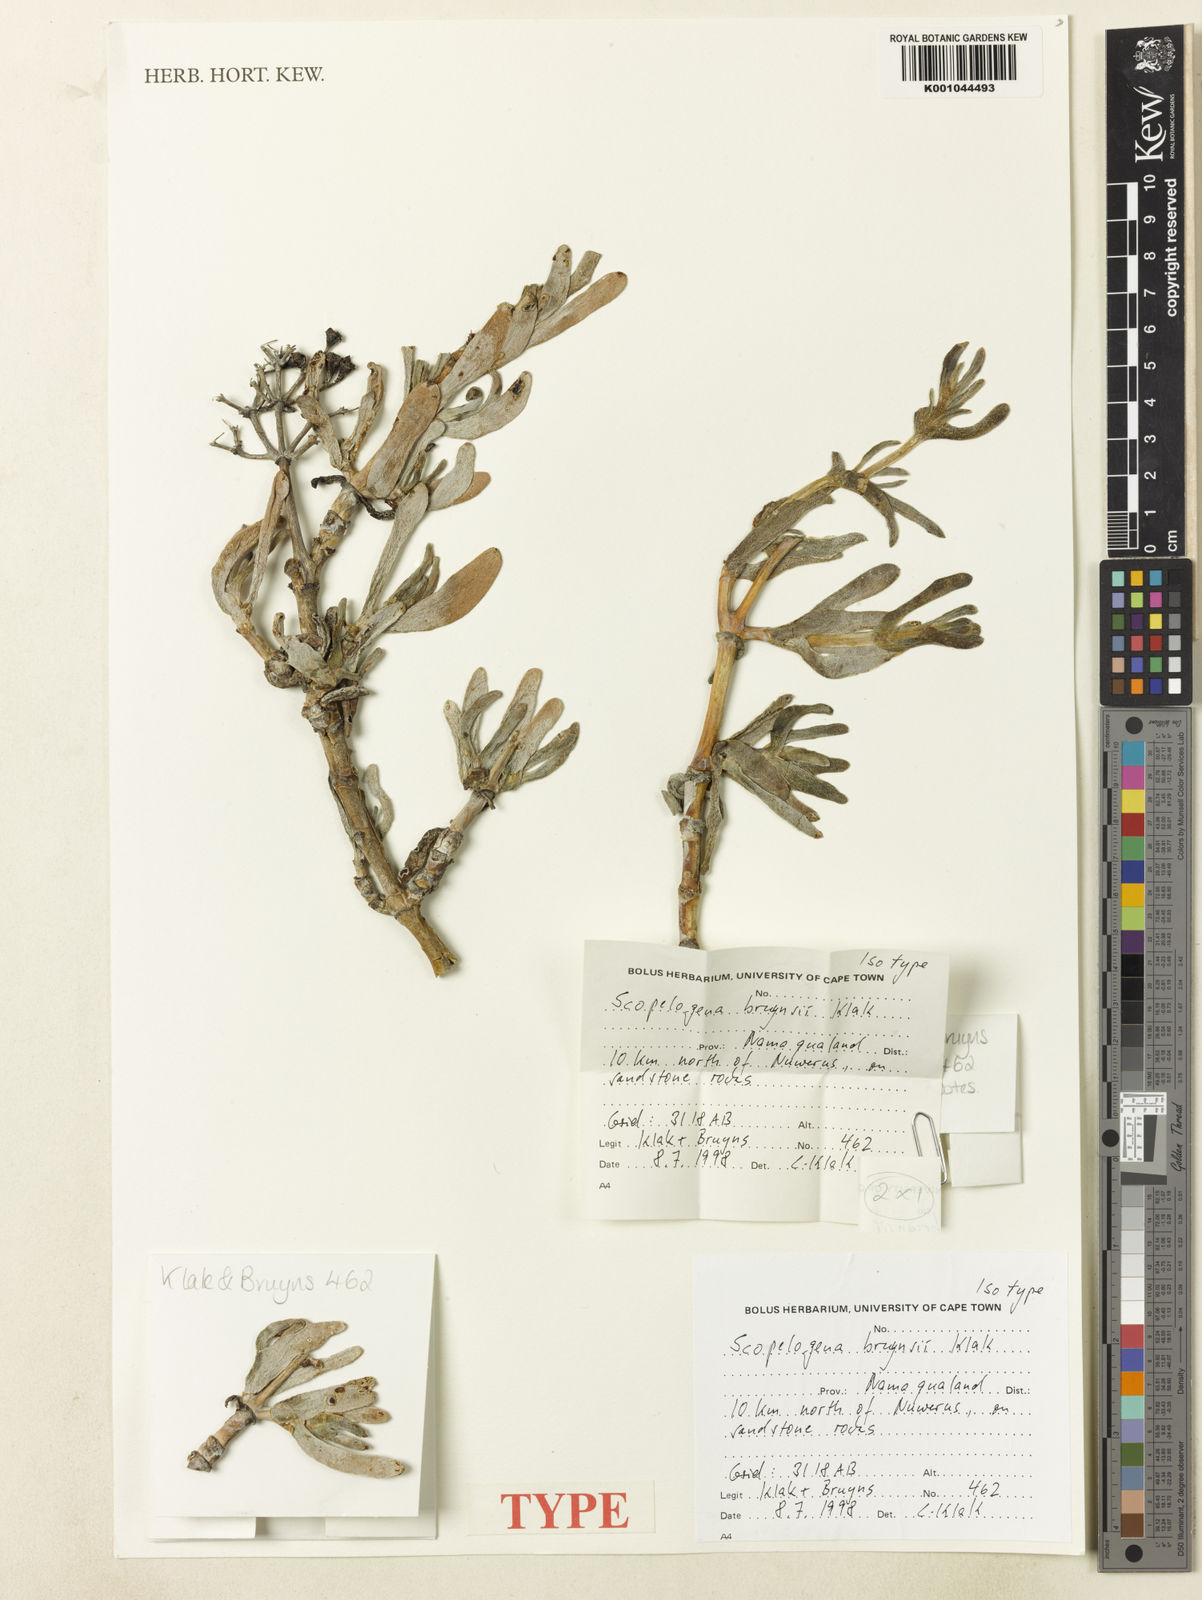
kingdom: Plantae
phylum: Tracheophyta
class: Magnoliopsida
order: Caryophyllales
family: Aizoaceae
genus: Scopelogena
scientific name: Scopelogena bruynsii
